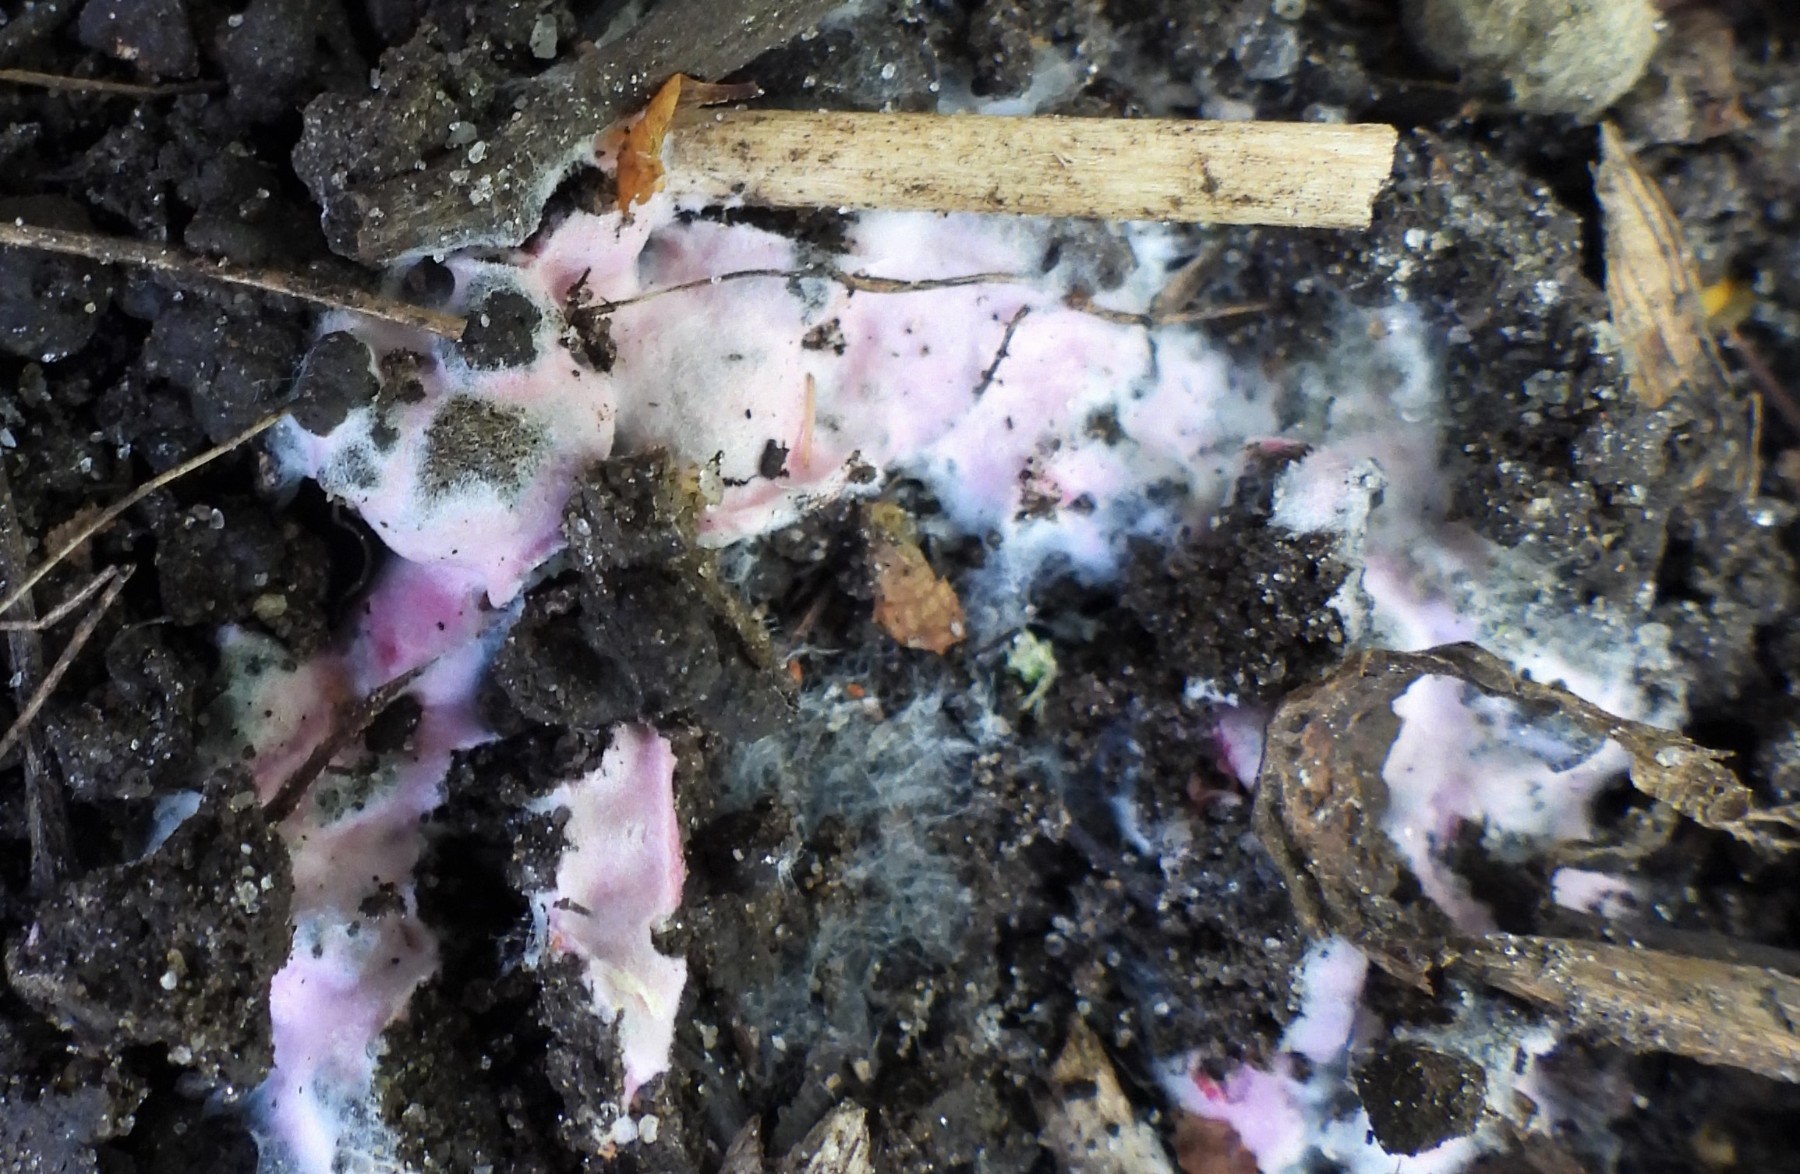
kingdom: Fungi
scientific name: Fungi
